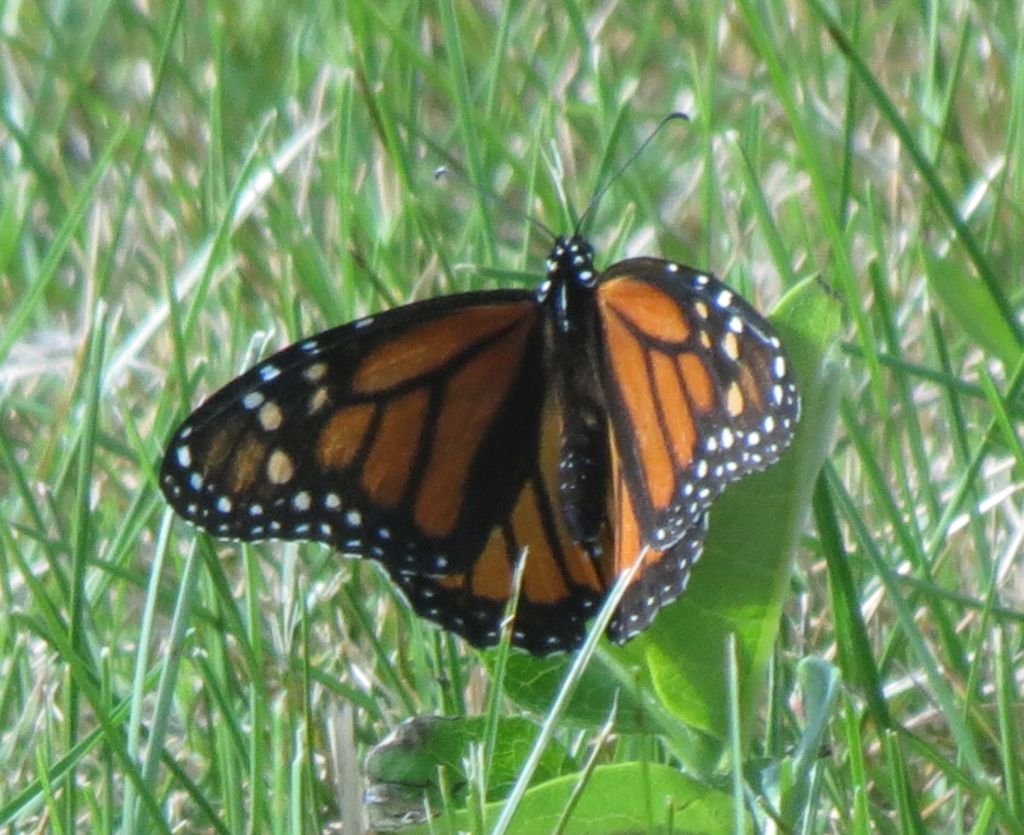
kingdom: Animalia
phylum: Arthropoda
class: Insecta
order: Lepidoptera
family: Nymphalidae
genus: Danaus
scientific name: Danaus plexippus
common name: Monarch
